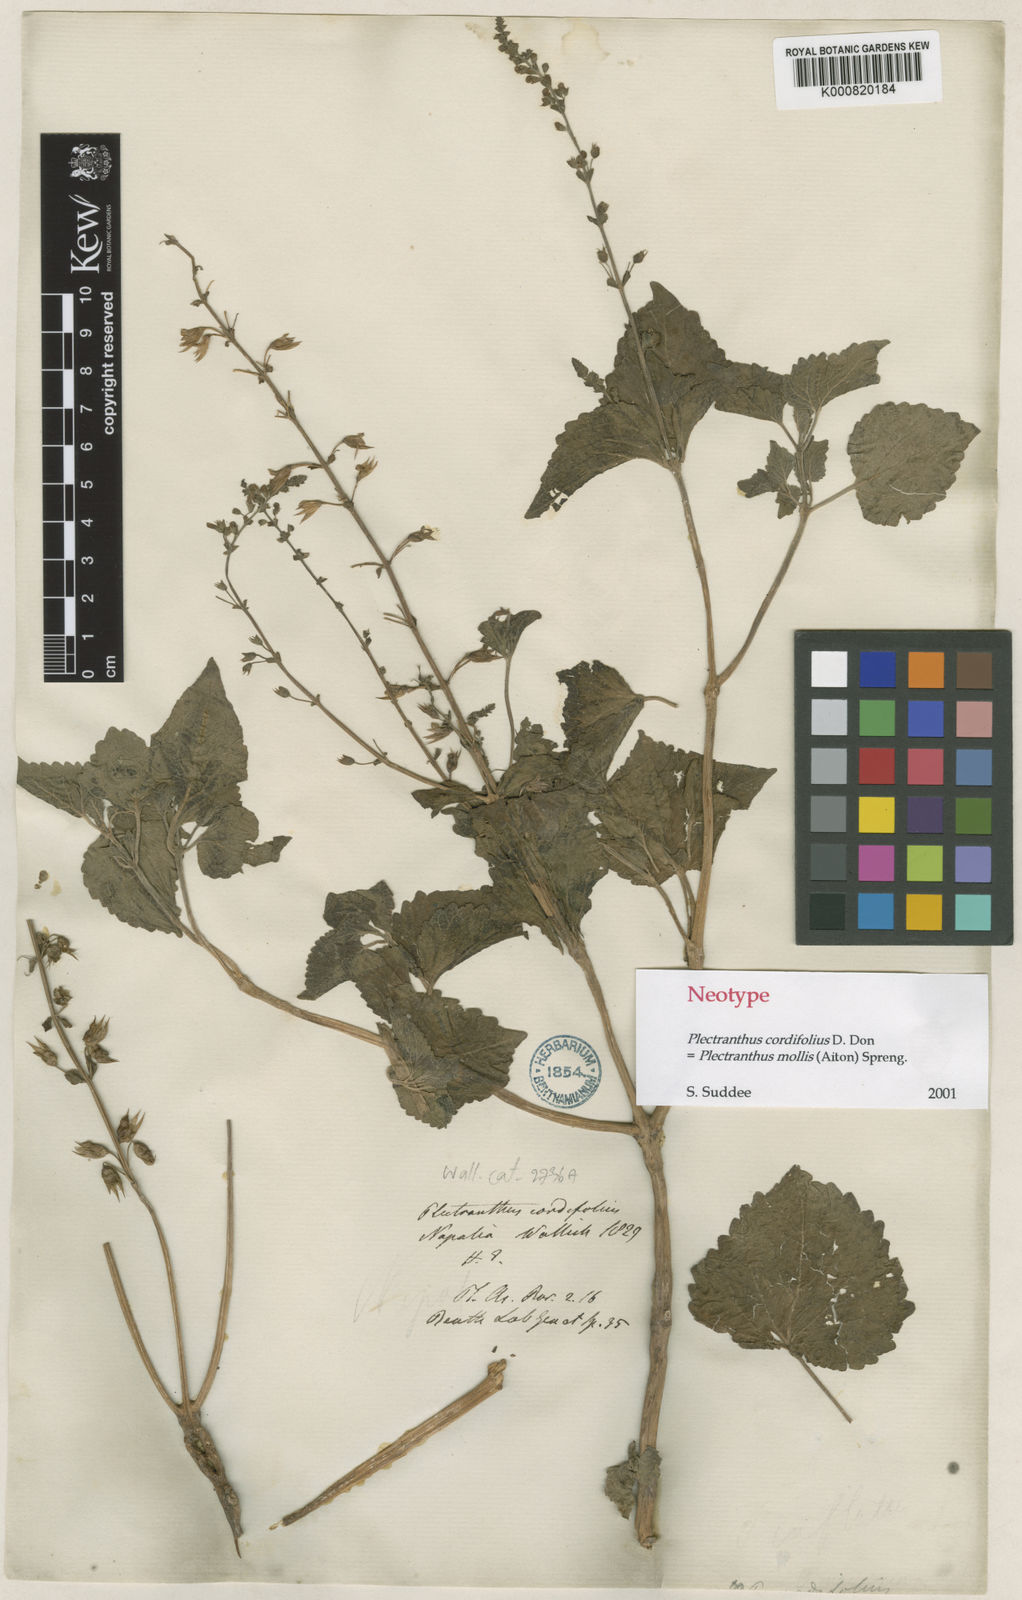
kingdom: Plantae
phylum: Tracheophyta
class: Magnoliopsida
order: Lamiales
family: Lamiaceae
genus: Equilabium
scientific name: Equilabium molle
